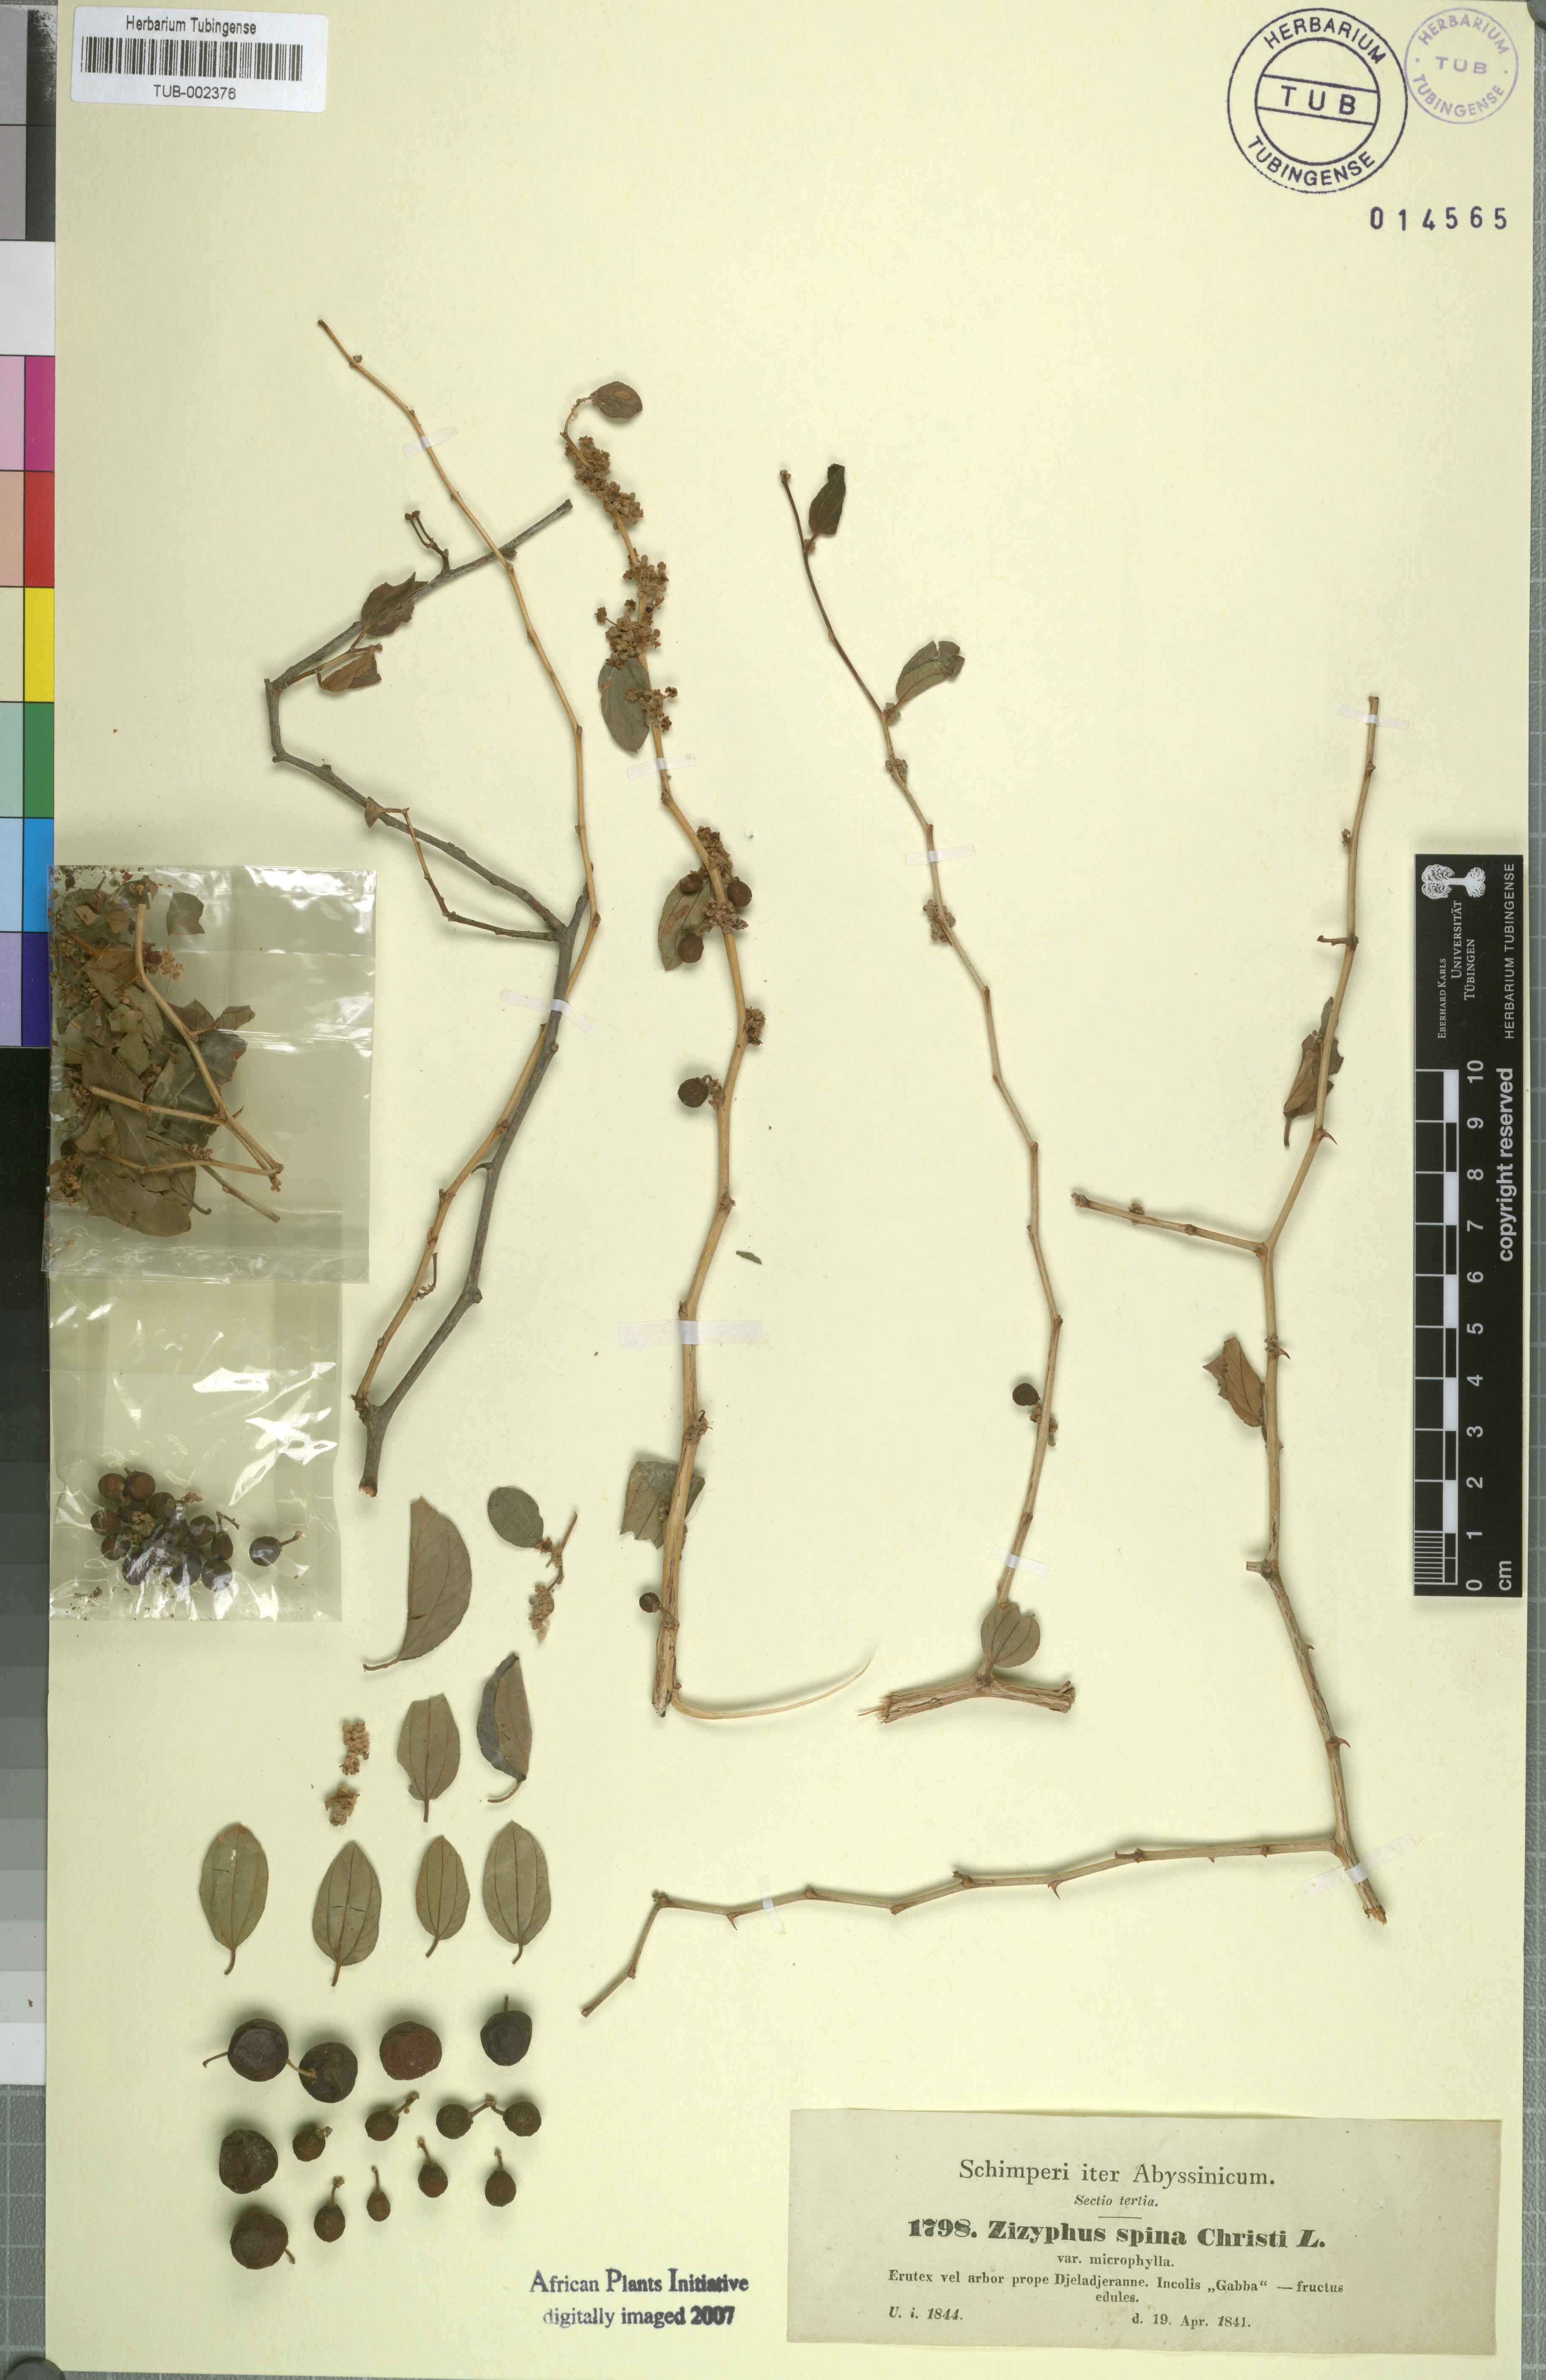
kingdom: Plantae
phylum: Tracheophyta
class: Magnoliopsida
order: Rosales
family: Rhamnaceae
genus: Ziziphus
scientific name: Ziziphus spina-christi
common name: Syrian christ-thorn
